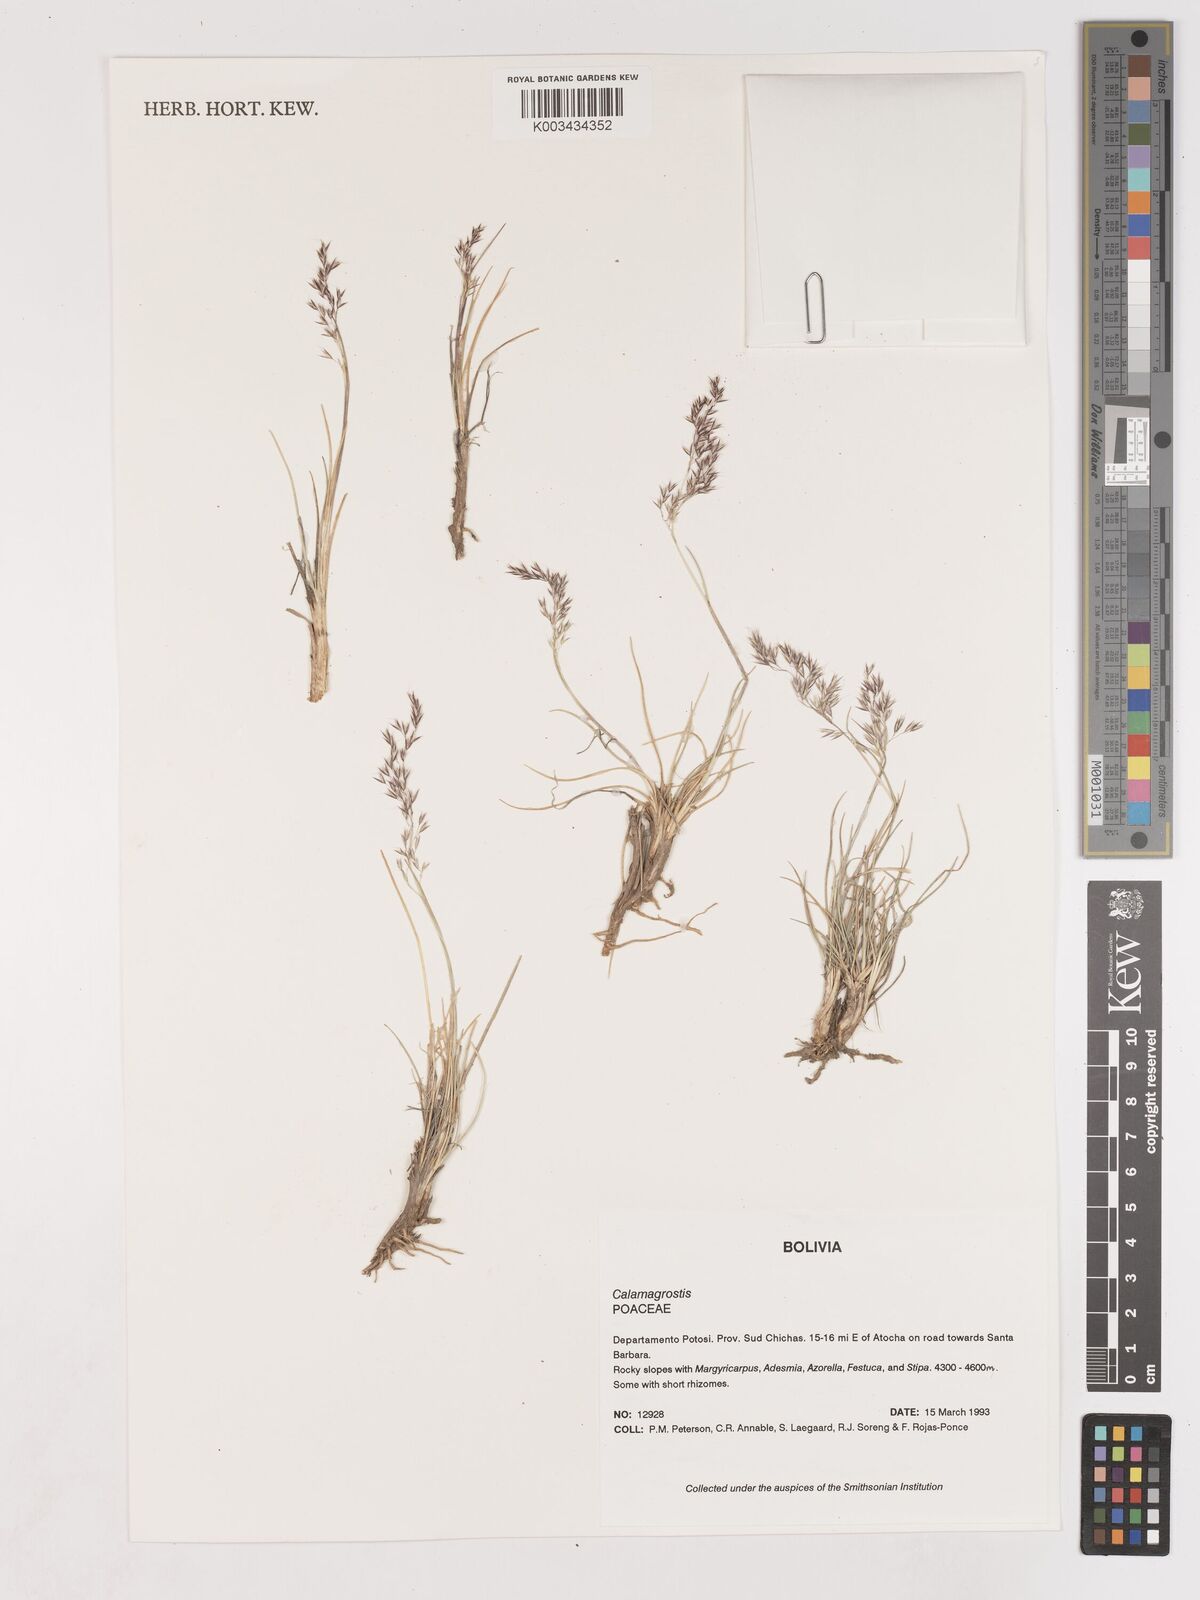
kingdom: Plantae
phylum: Tracheophyta
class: Liliopsida
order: Poales
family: Poaceae
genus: Cinnagrostis
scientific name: Cinnagrostis violacea
